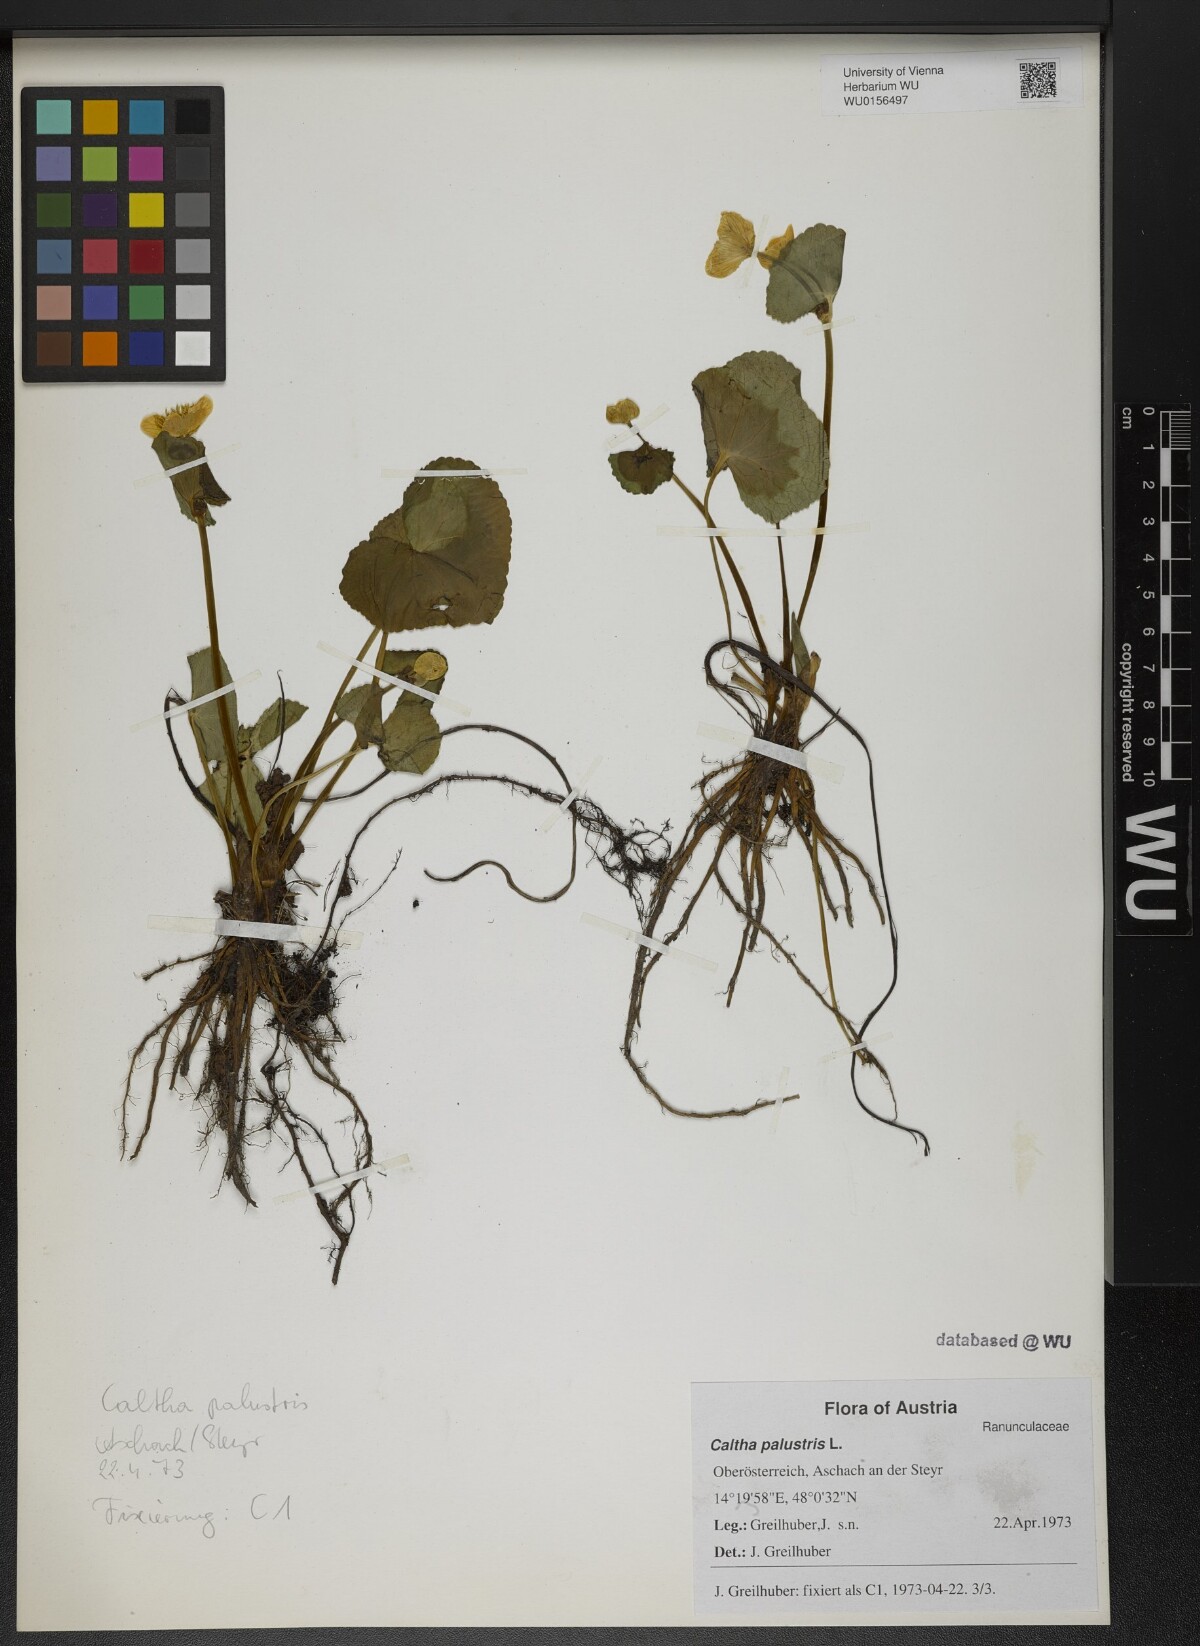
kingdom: Plantae
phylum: Tracheophyta
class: Magnoliopsida
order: Ranunculales
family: Ranunculaceae
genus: Caltha
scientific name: Caltha palustris
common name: Marsh marigold
